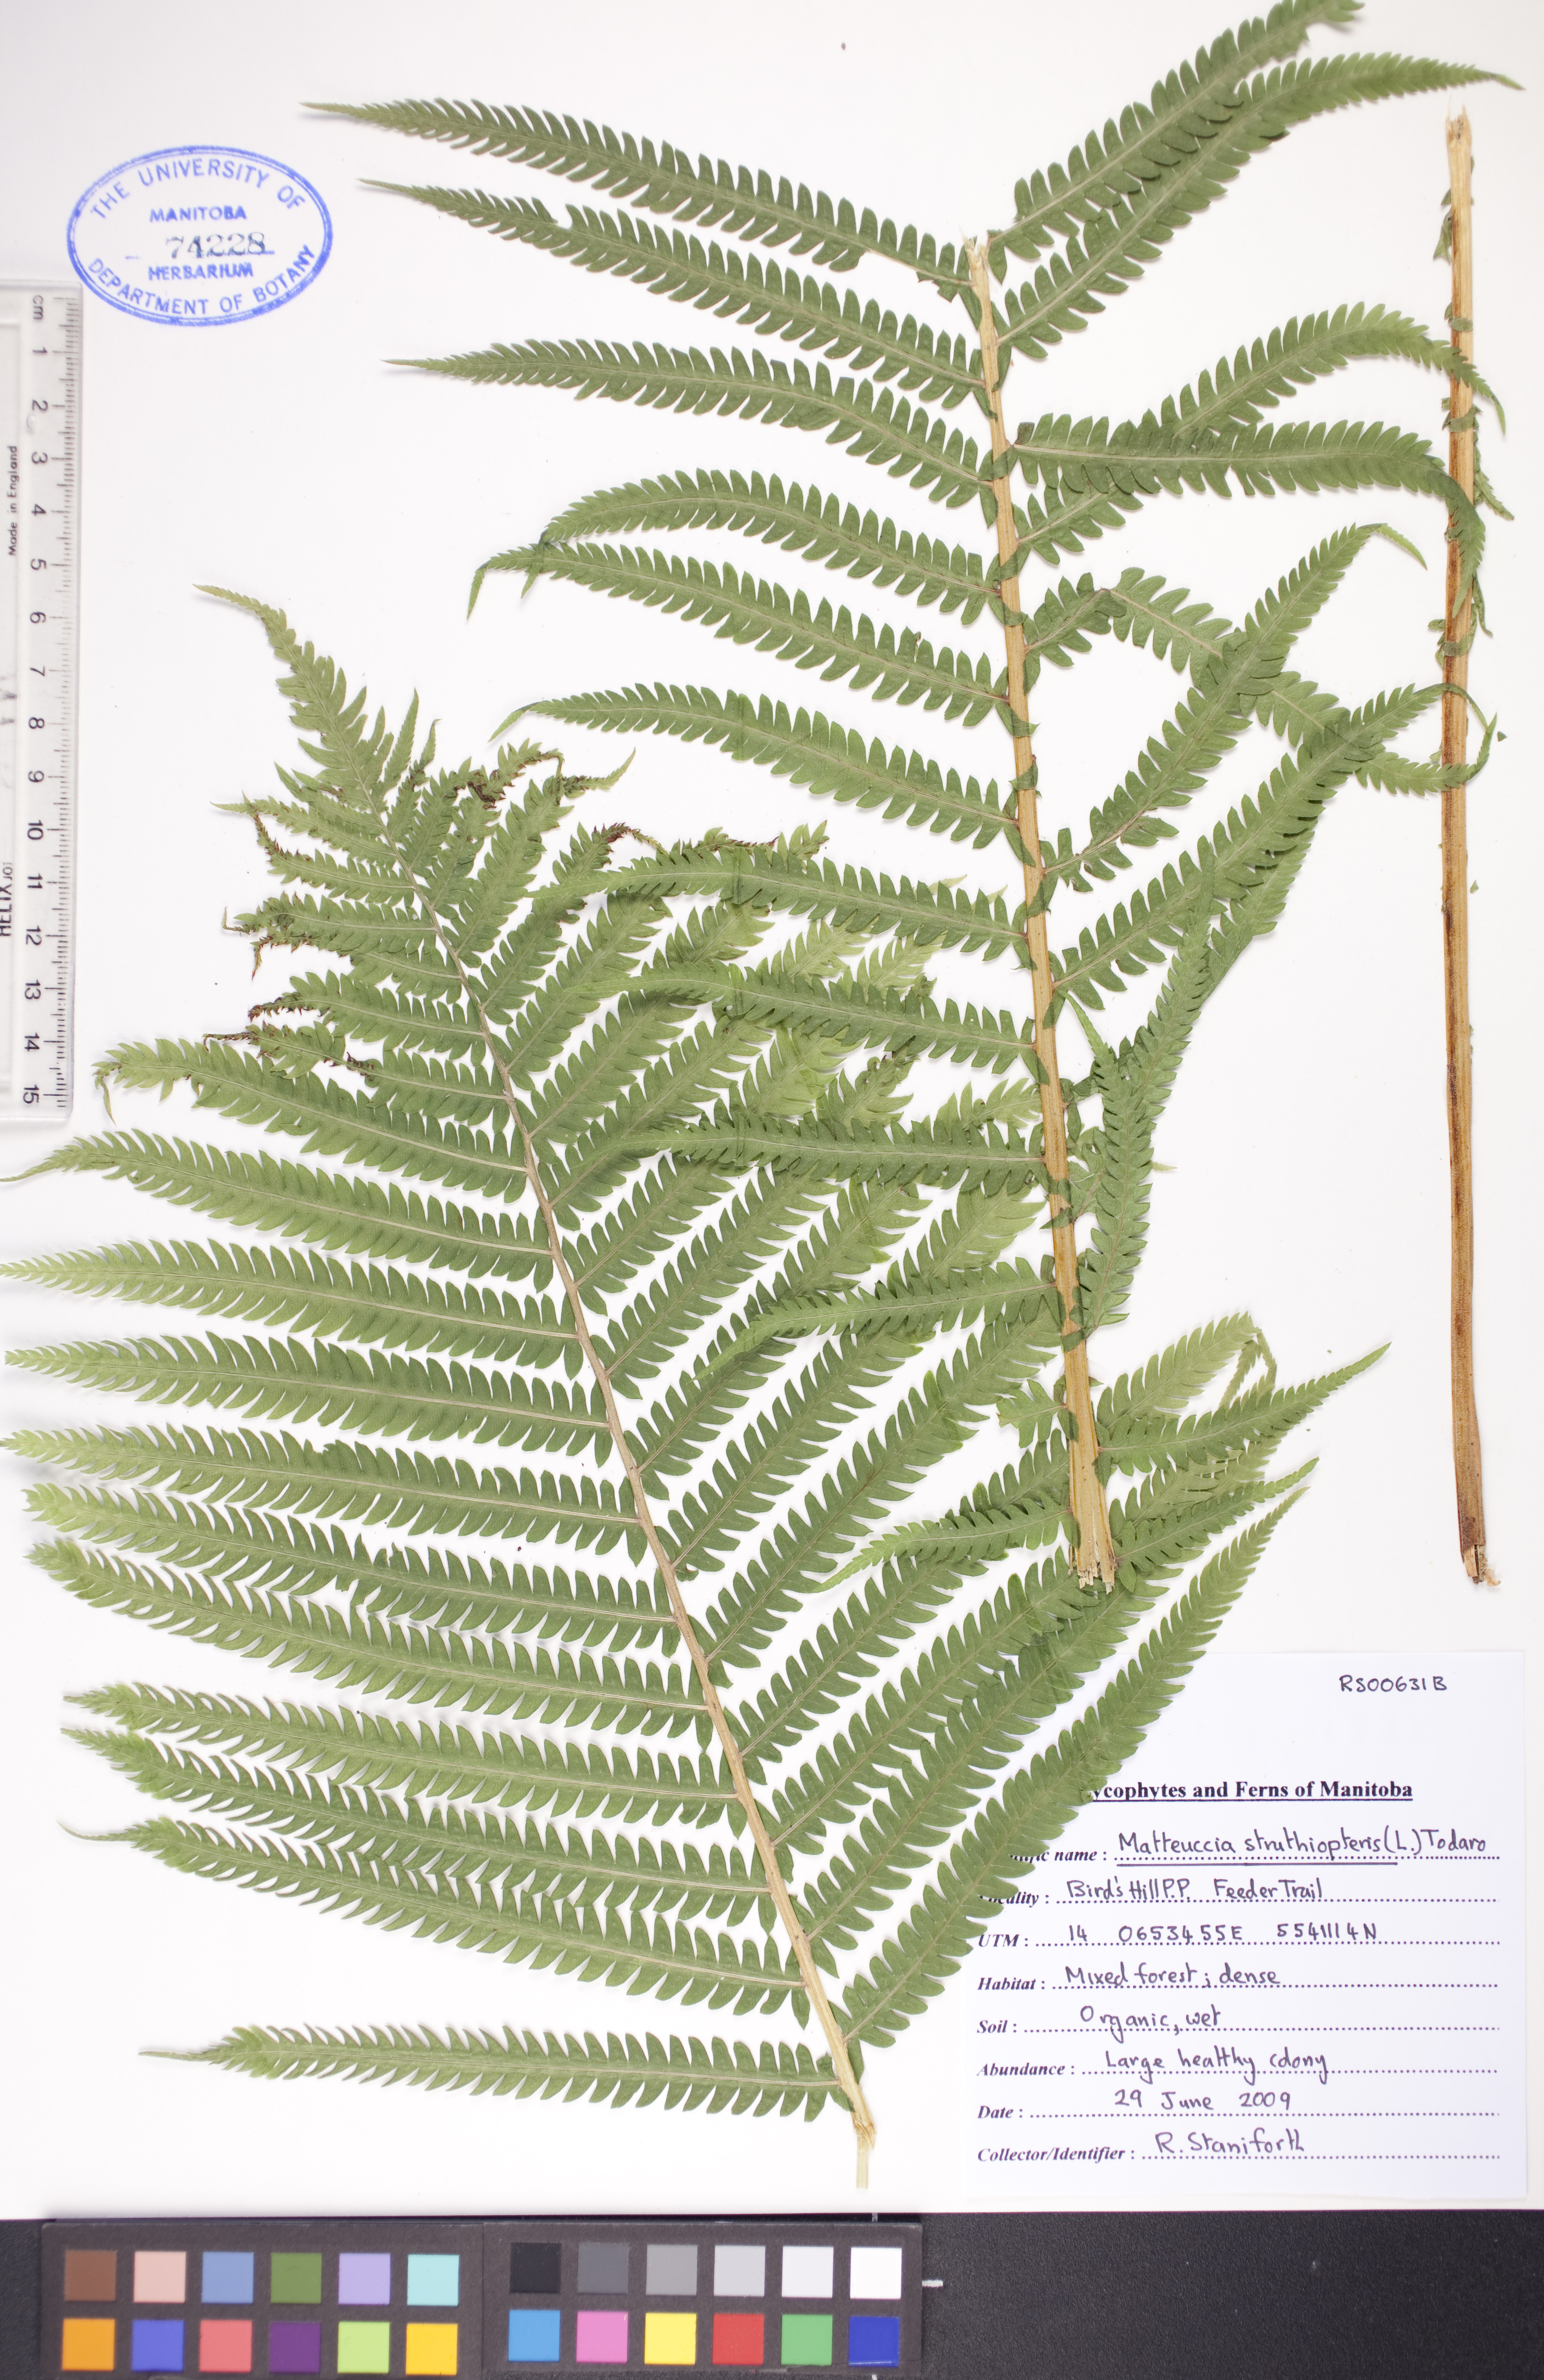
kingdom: Plantae
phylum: Tracheophyta
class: Polypodiopsida
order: Polypodiales
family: Onocleaceae
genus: Matteuccia
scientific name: Matteuccia struthiopteris
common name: Ostrich fern
